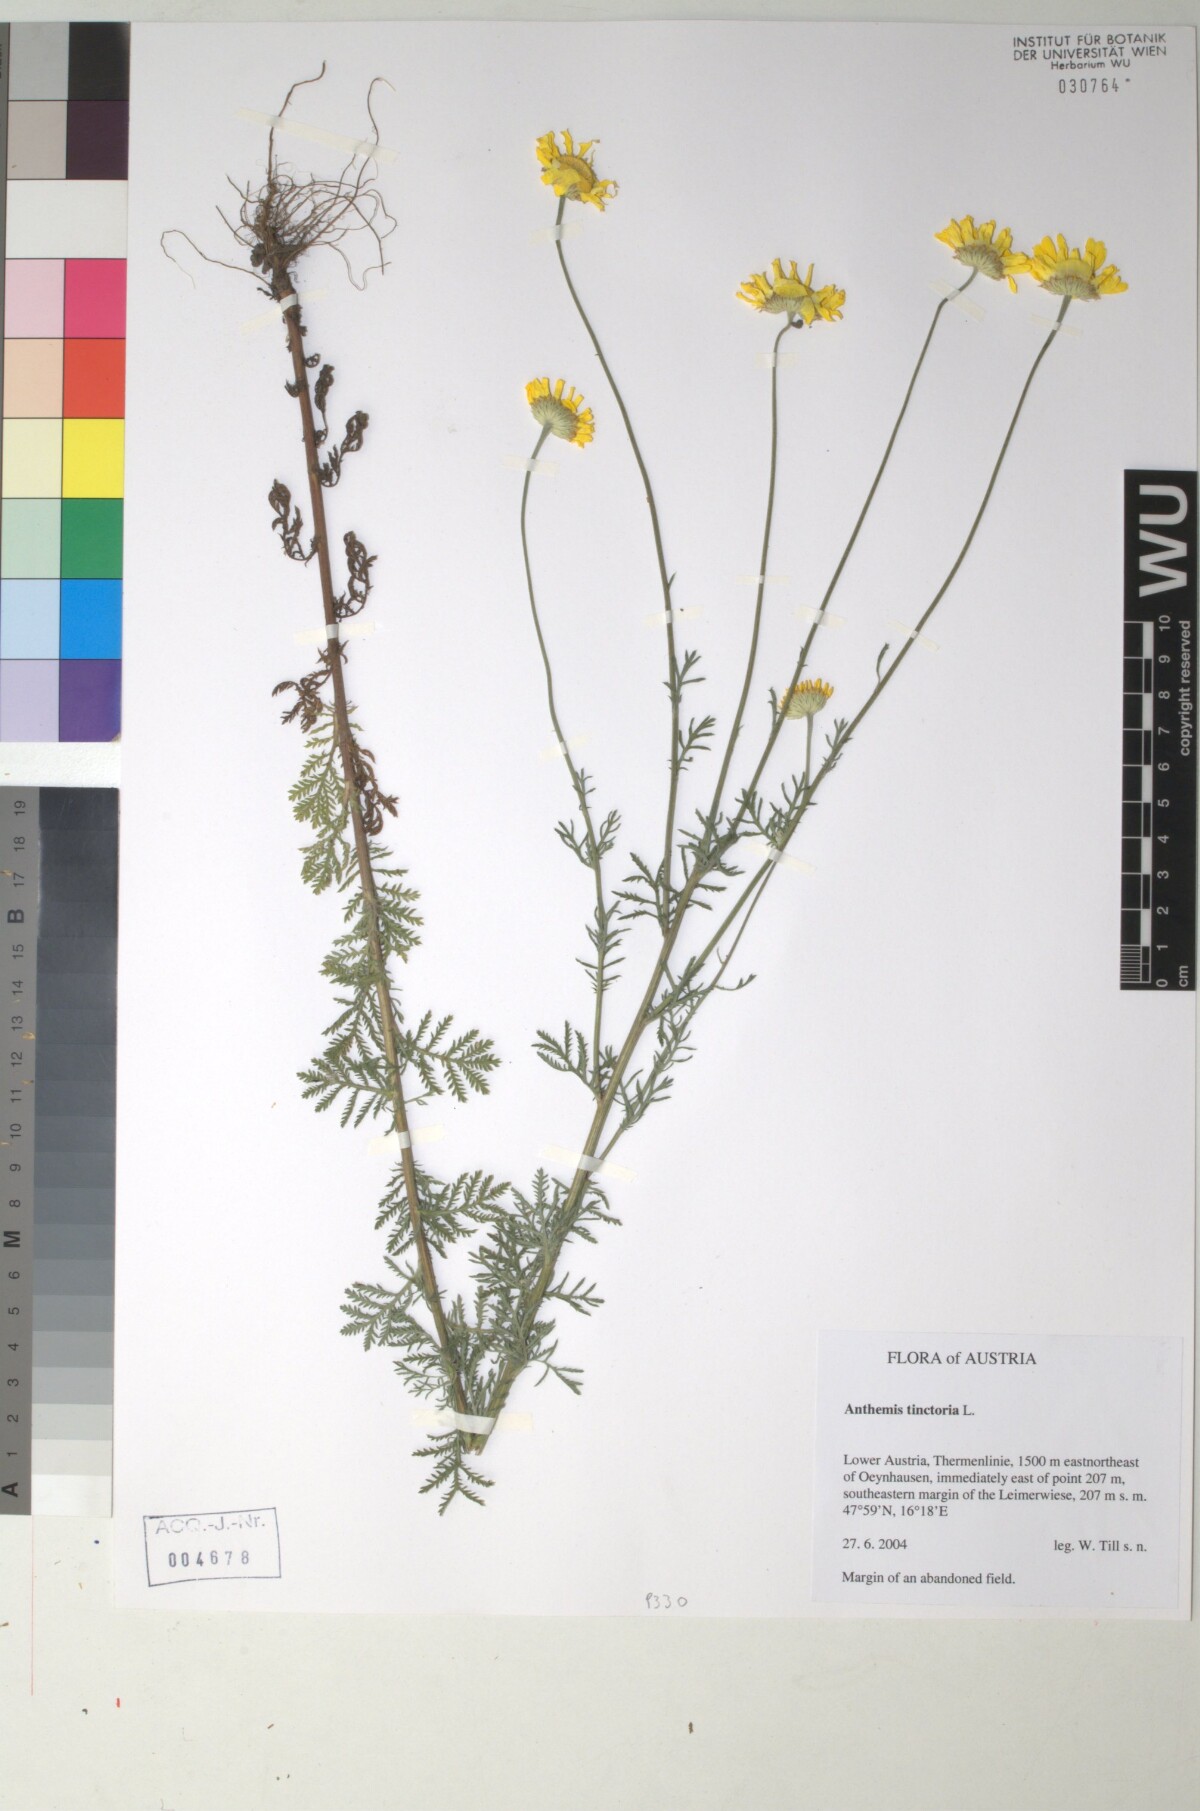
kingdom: Plantae
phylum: Tracheophyta
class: Magnoliopsida
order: Asterales
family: Asteraceae
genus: Cota
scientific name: Cota tinctoria
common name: Golden chamomile
